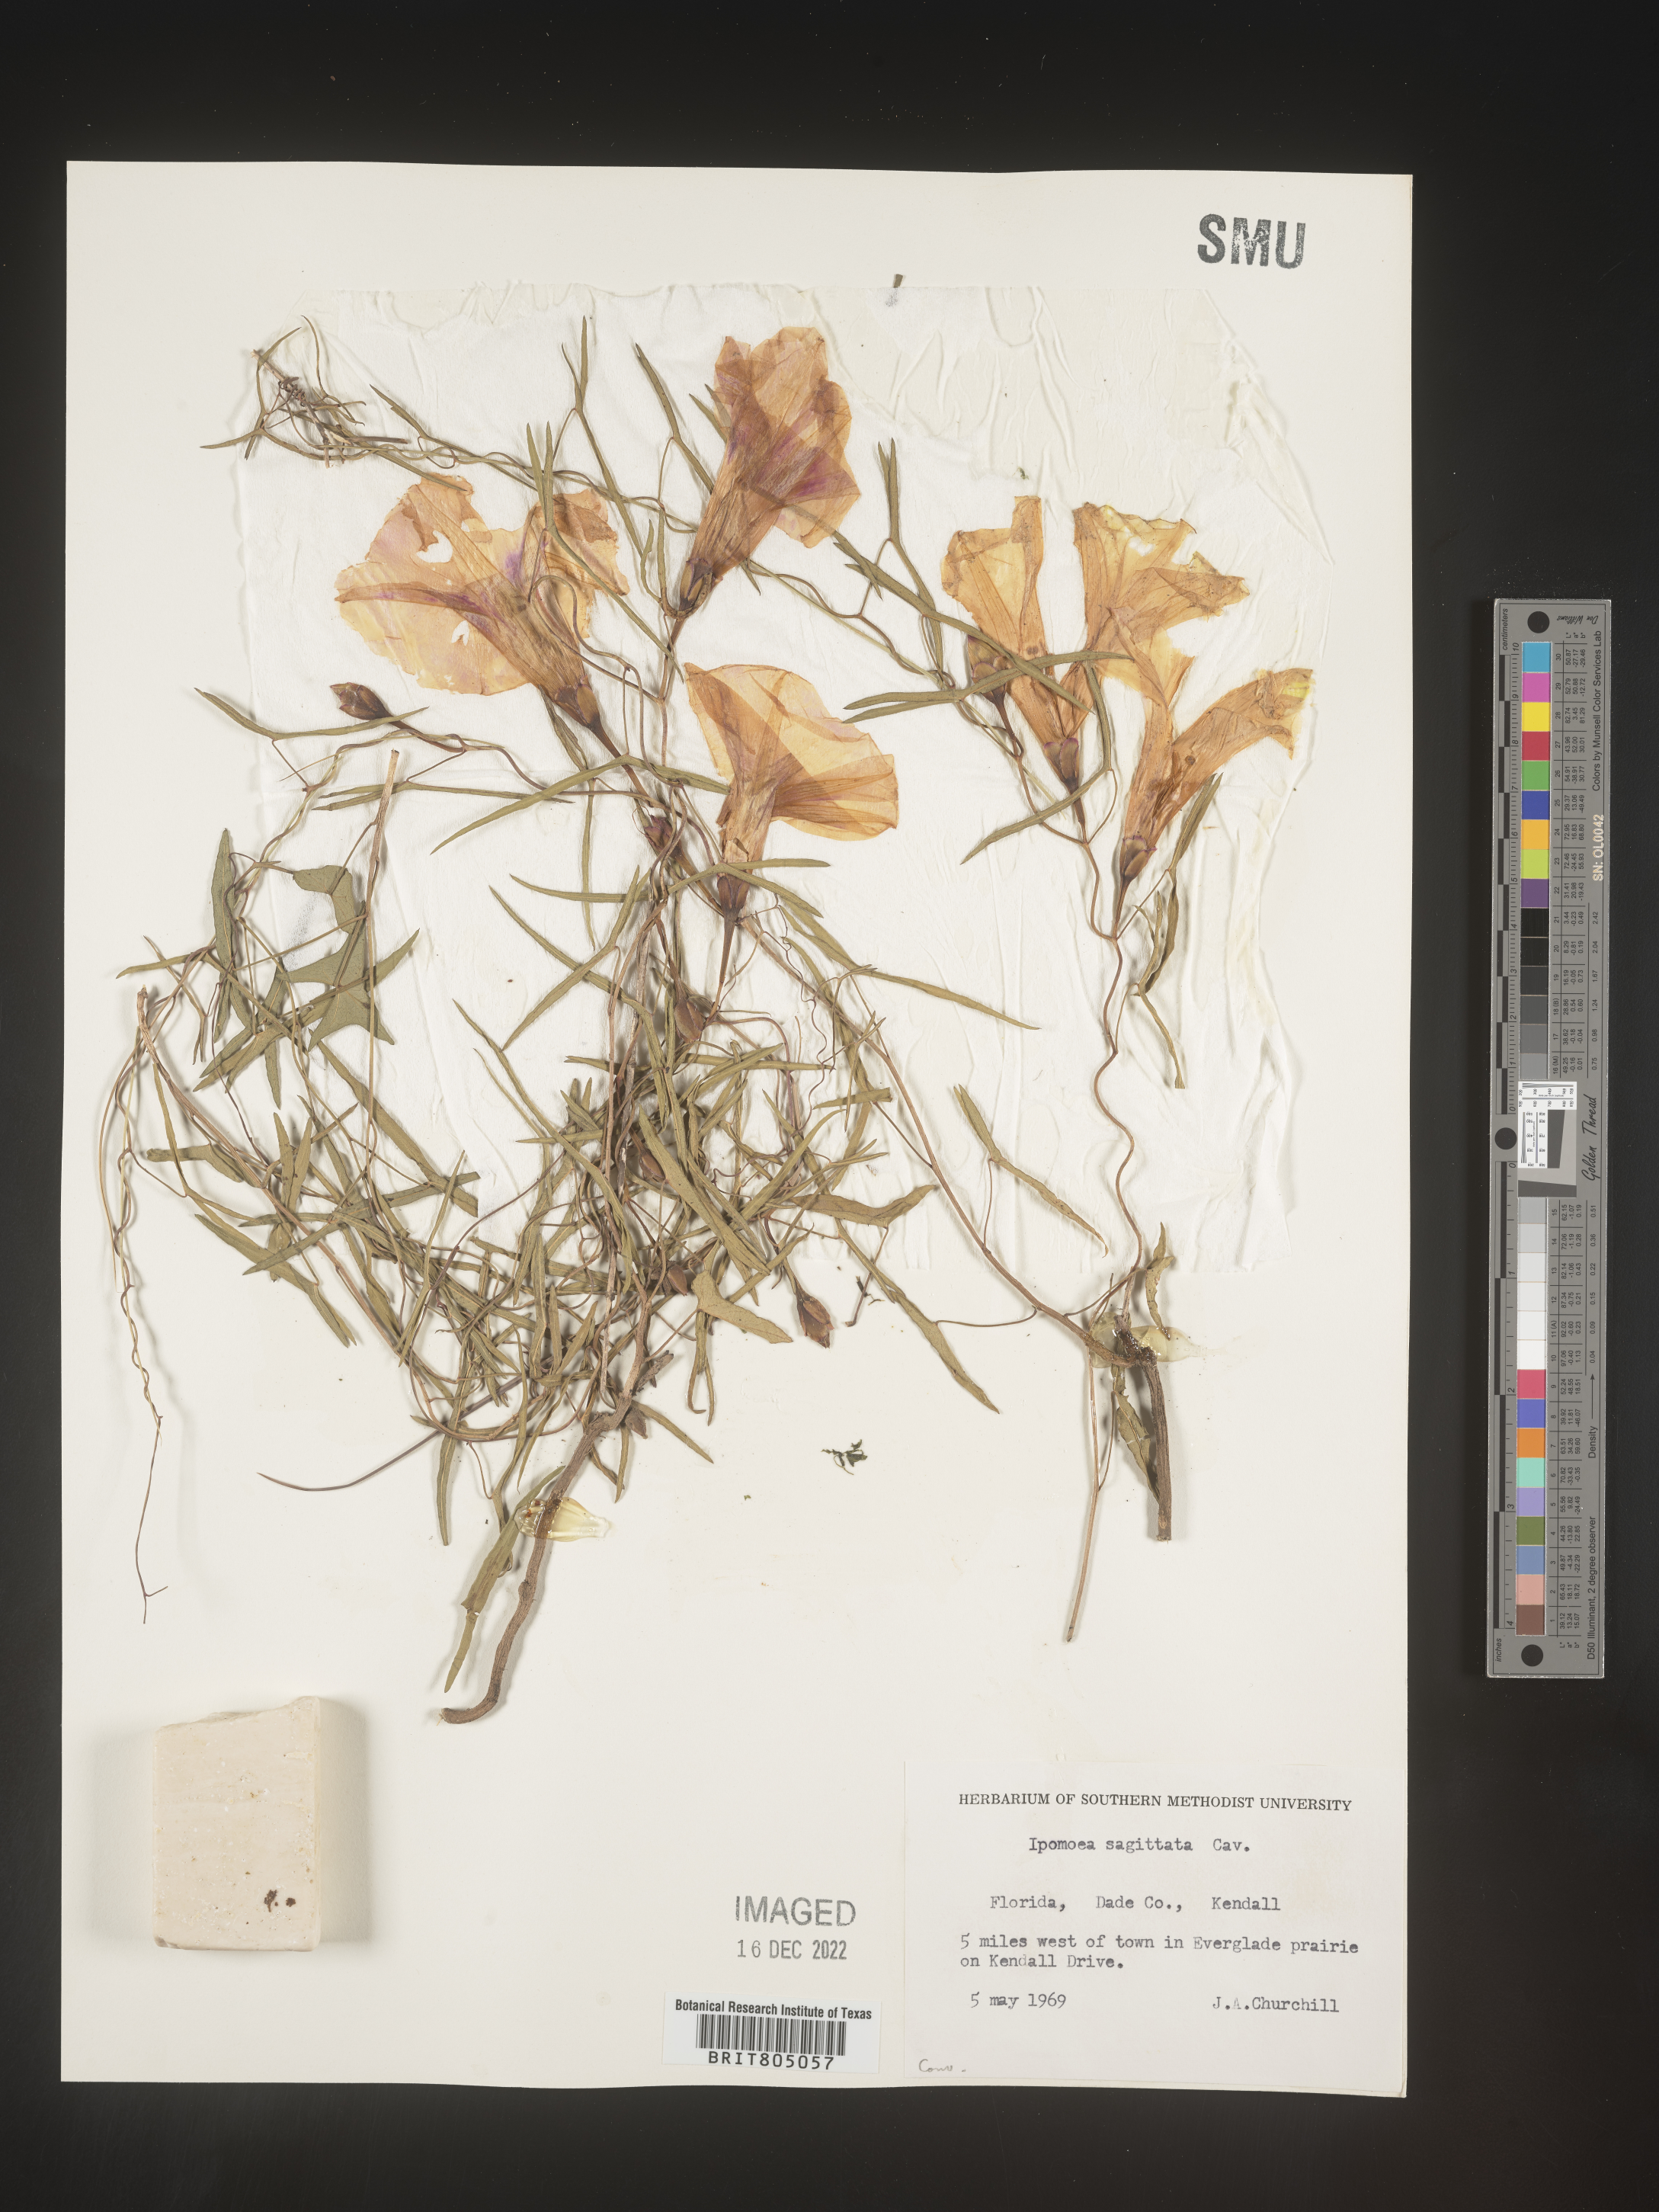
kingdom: Plantae
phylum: Tracheophyta
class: Magnoliopsida
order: Solanales
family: Convolvulaceae
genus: Ipomoea
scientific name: Ipomoea sinensis
